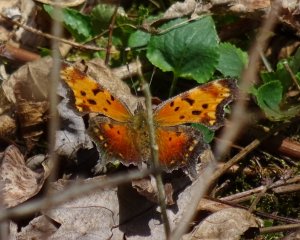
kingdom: Animalia
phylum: Arthropoda
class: Insecta
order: Lepidoptera
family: Nymphalidae
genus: Polygonia
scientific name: Polygonia comma
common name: Eastern Comma
